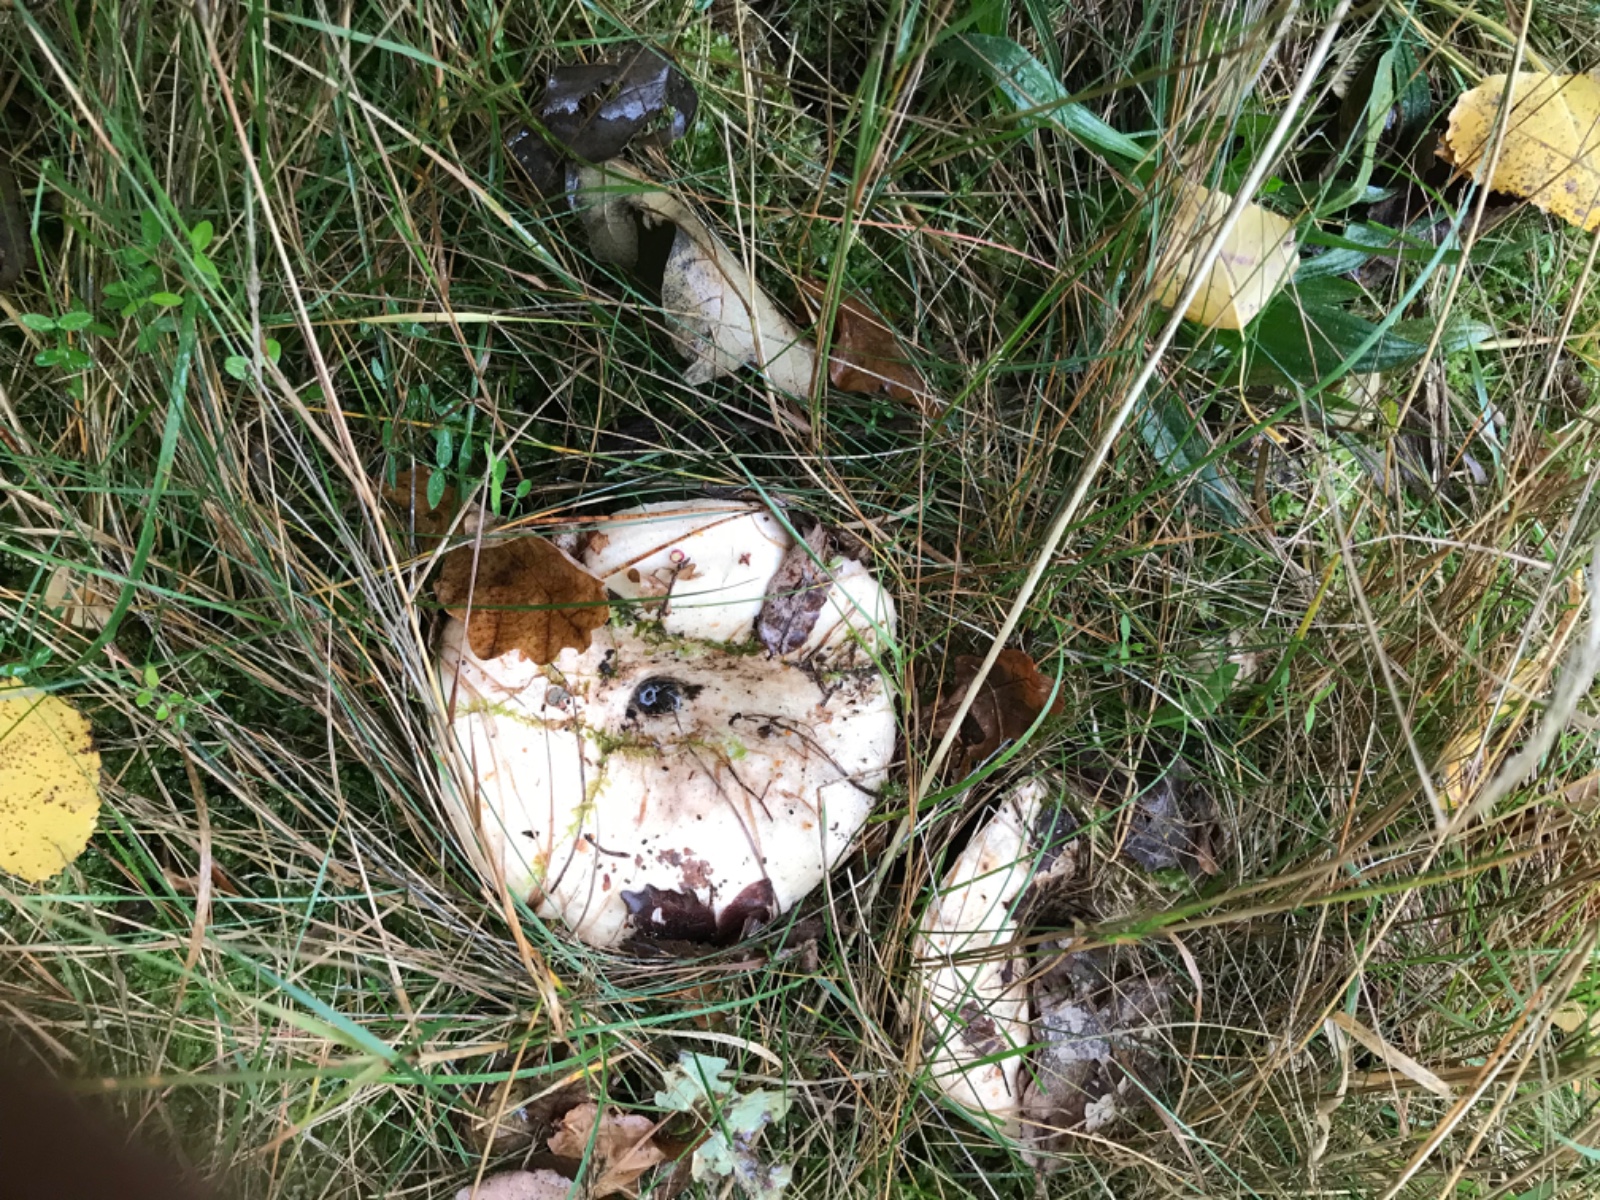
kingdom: Fungi
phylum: Basidiomycota
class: Agaricomycetes
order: Russulales
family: Russulaceae
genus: Lactifluus
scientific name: Lactifluus vellereus
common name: hvidfiltet mælkehat
